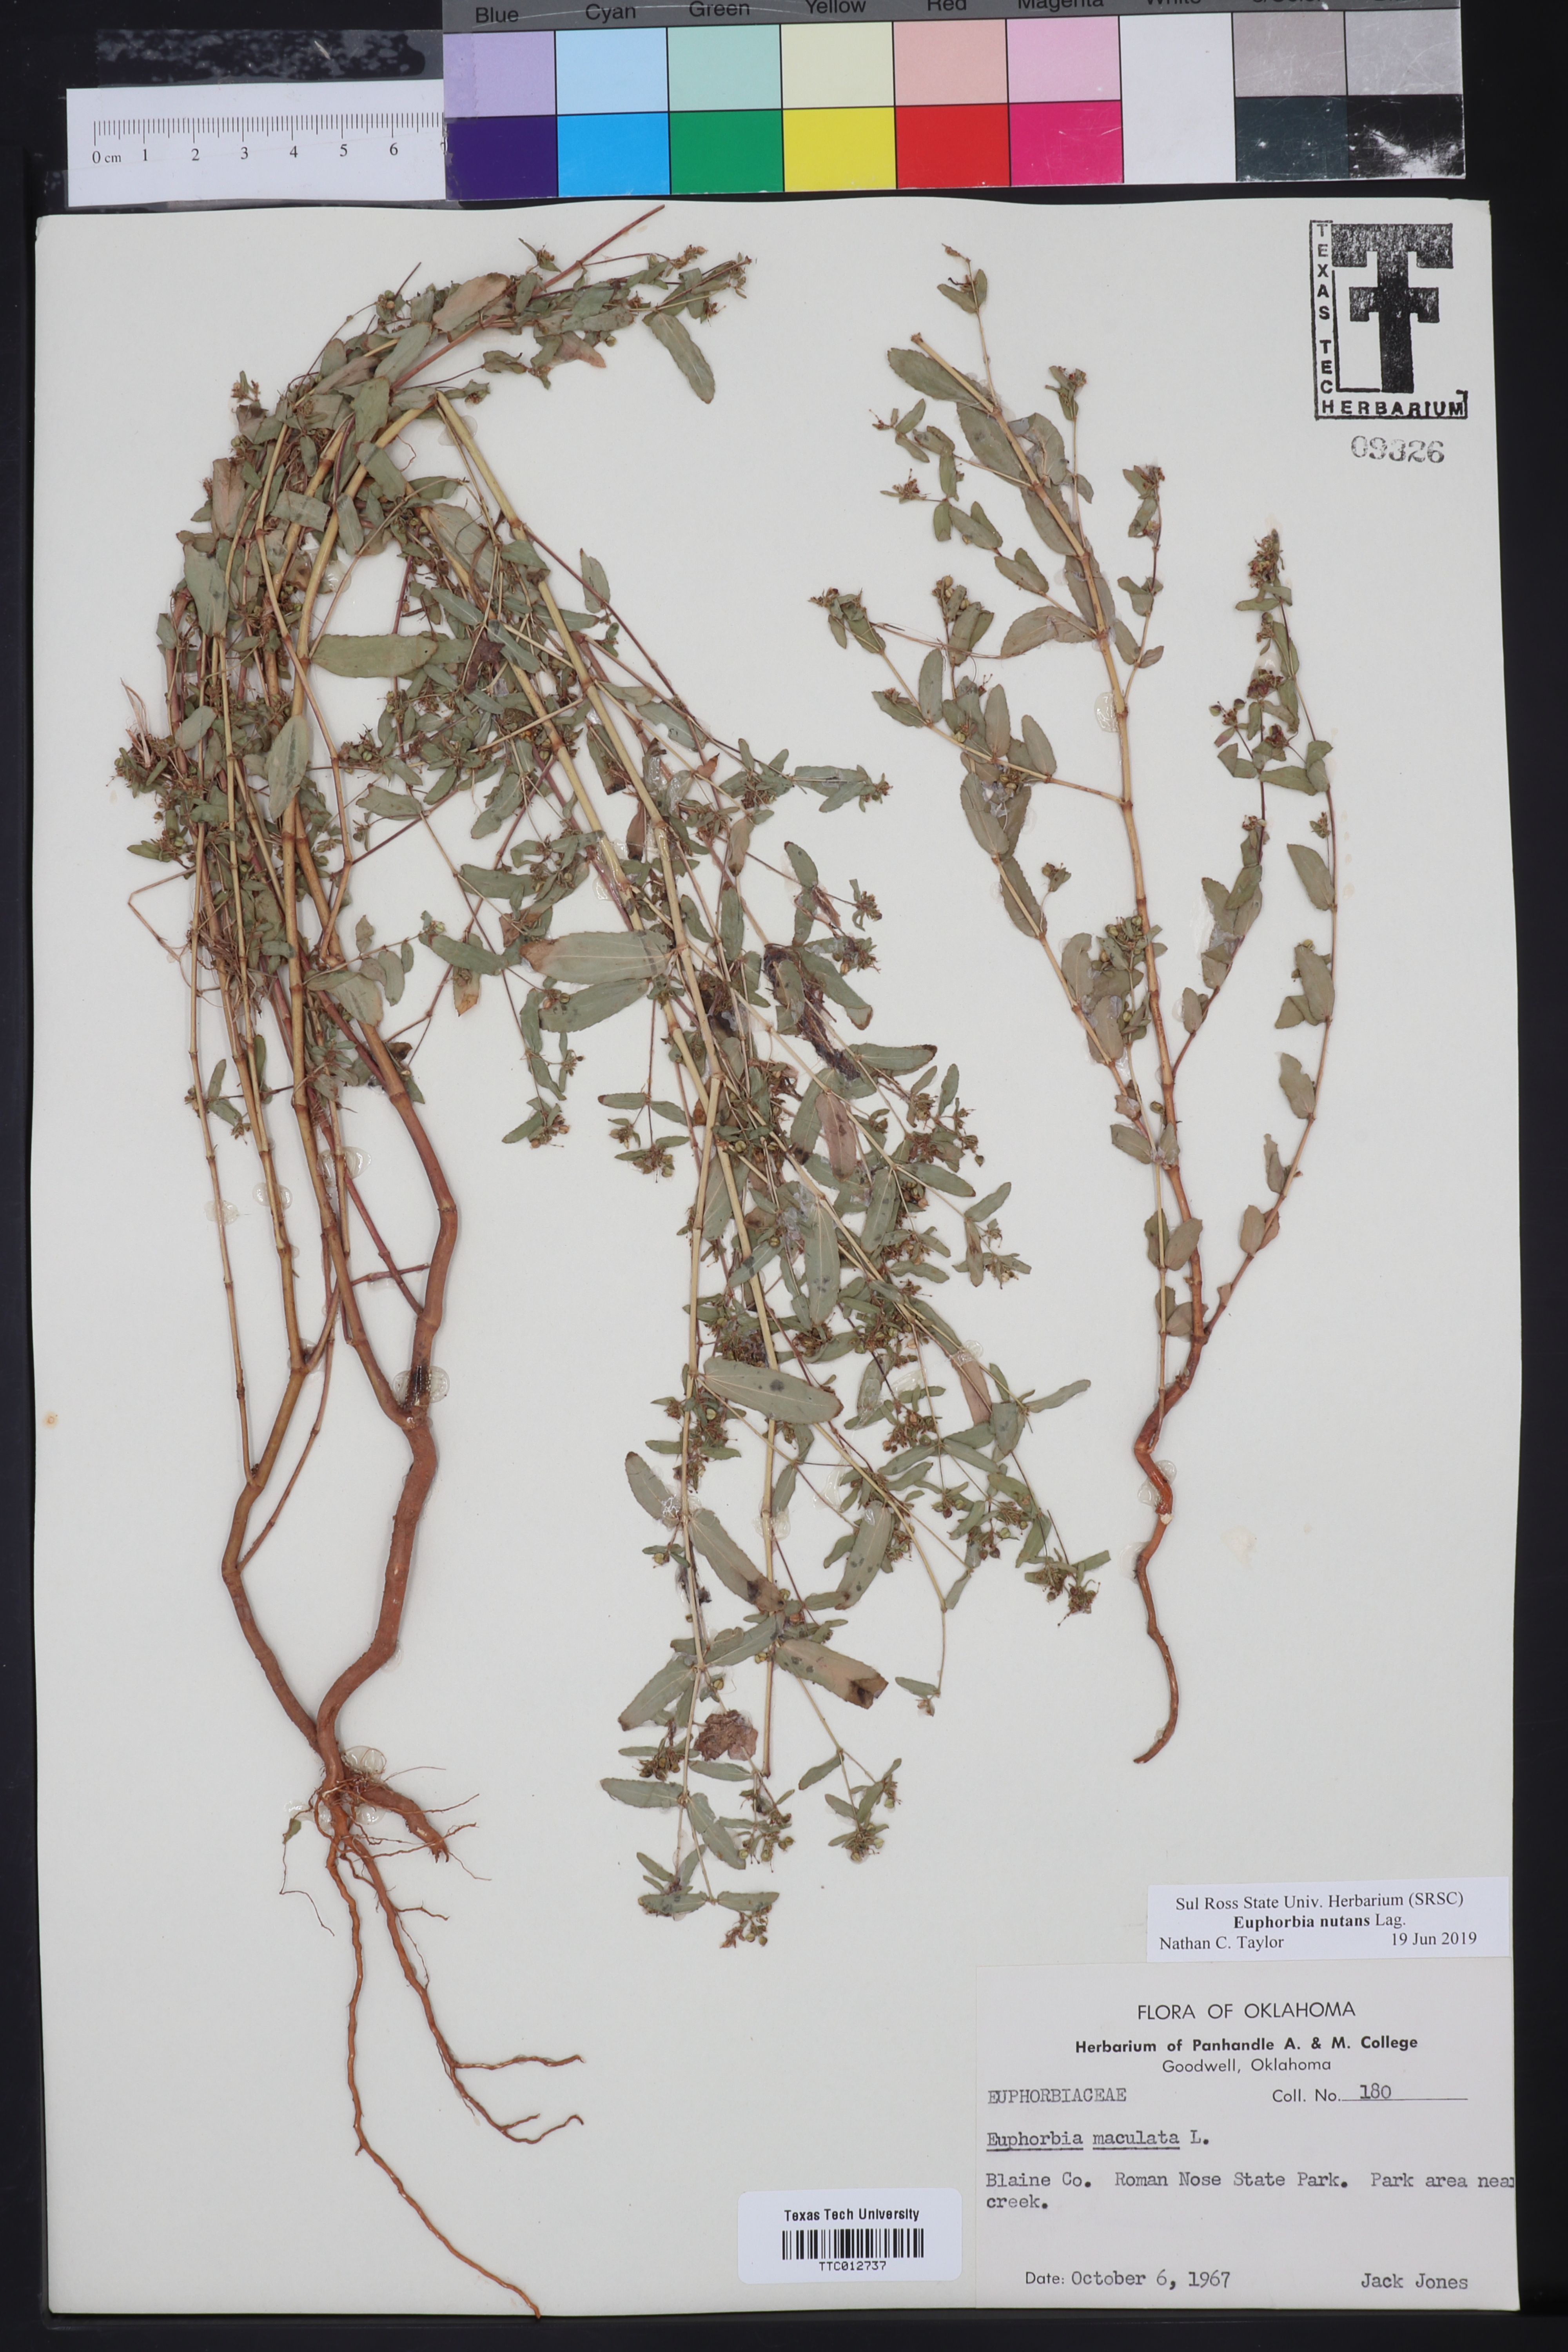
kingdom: Plantae
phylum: Tracheophyta
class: Magnoliopsida
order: Malpighiales
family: Euphorbiaceae
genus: Euphorbia
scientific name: Euphorbia maculata
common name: Spotted spurge
